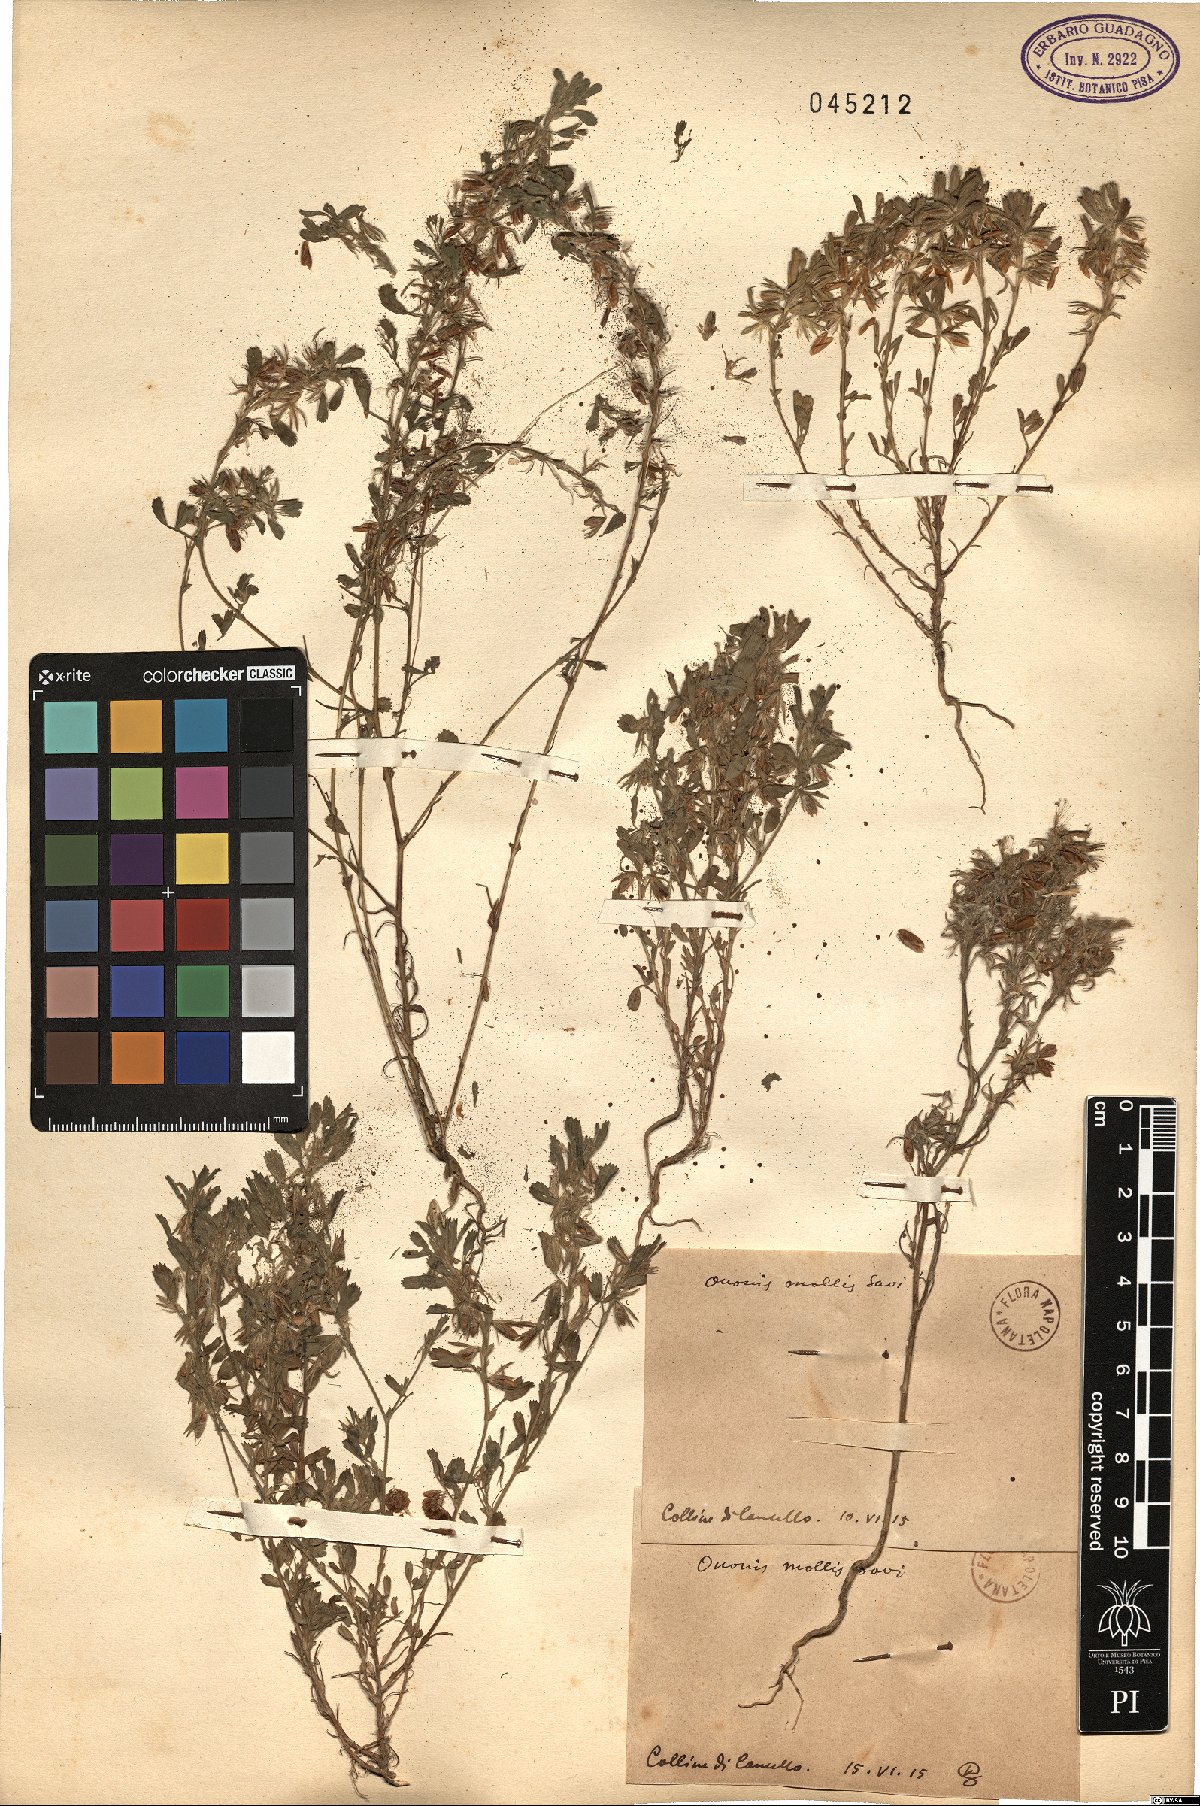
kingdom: Plantae
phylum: Tracheophyta
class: Magnoliopsida
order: Fabales
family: Fabaceae
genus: Ononis
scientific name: Ononis reclinata
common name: Small restharrow
